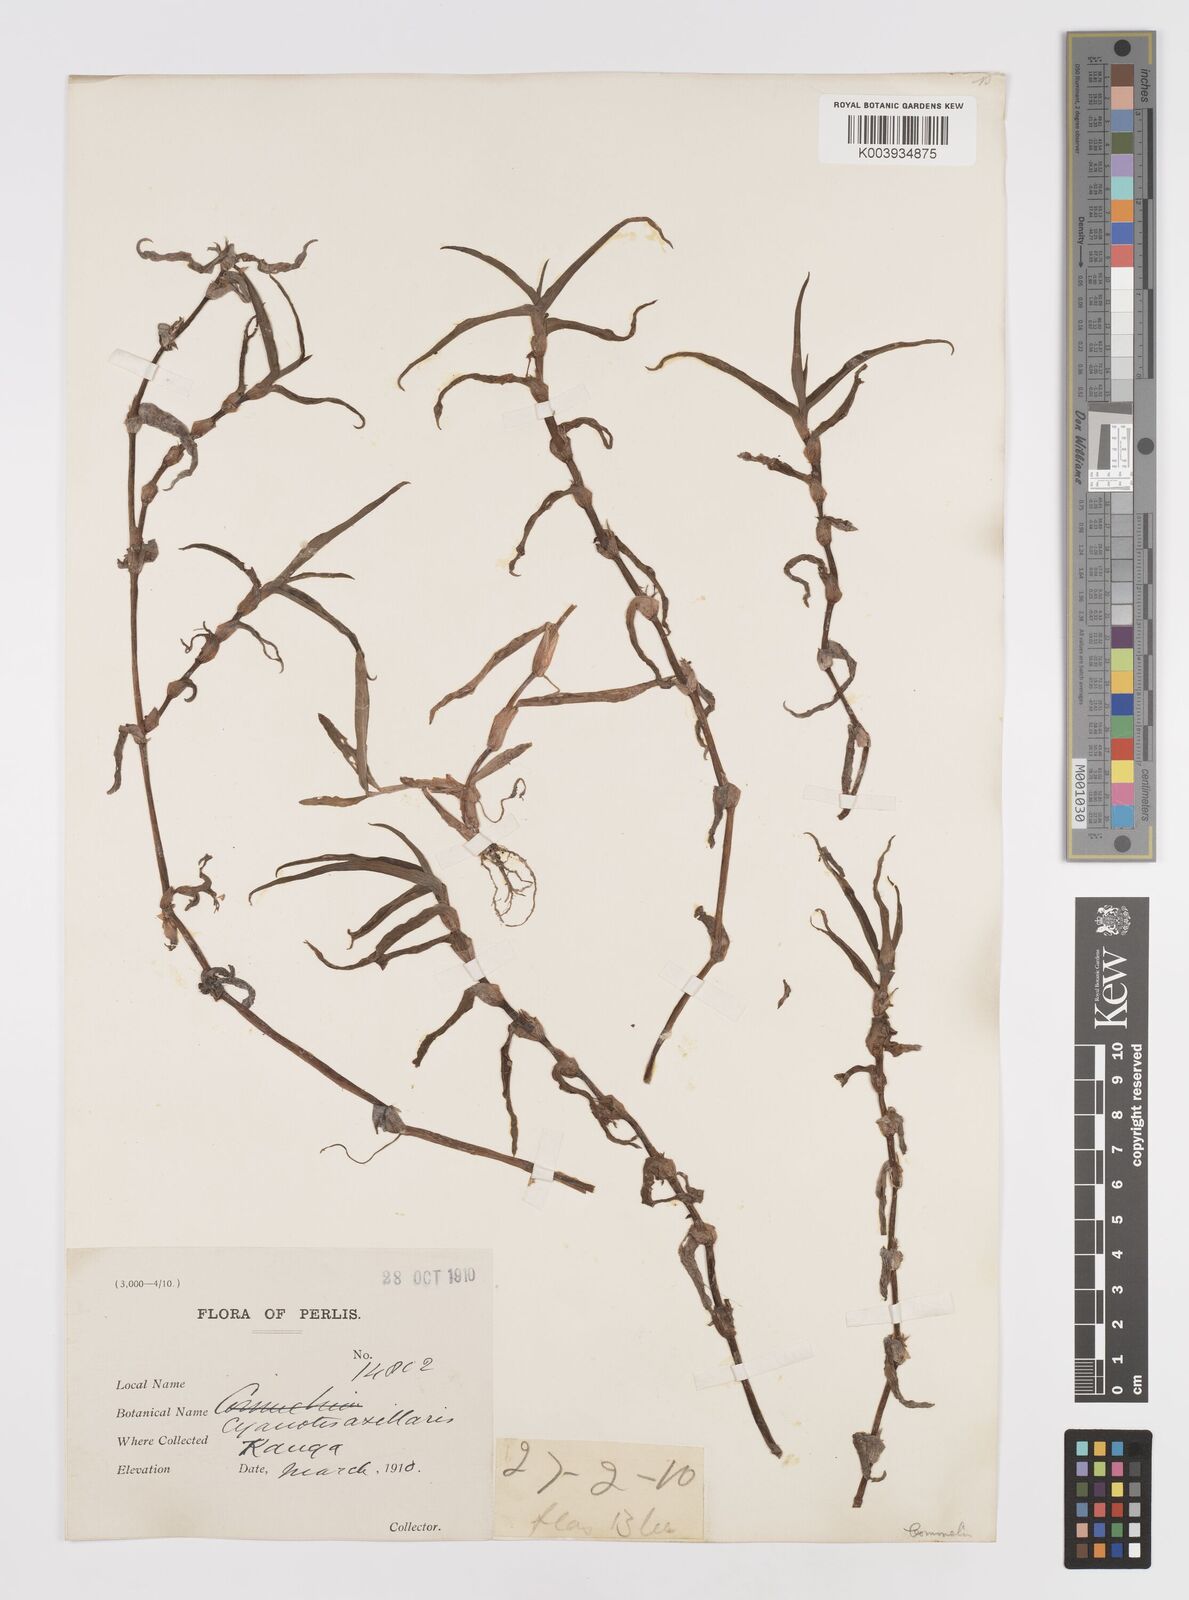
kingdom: Plantae
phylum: Tracheophyta
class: Liliopsida
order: Commelinales
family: Commelinaceae
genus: Cyanotis
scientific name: Cyanotis axillaris
